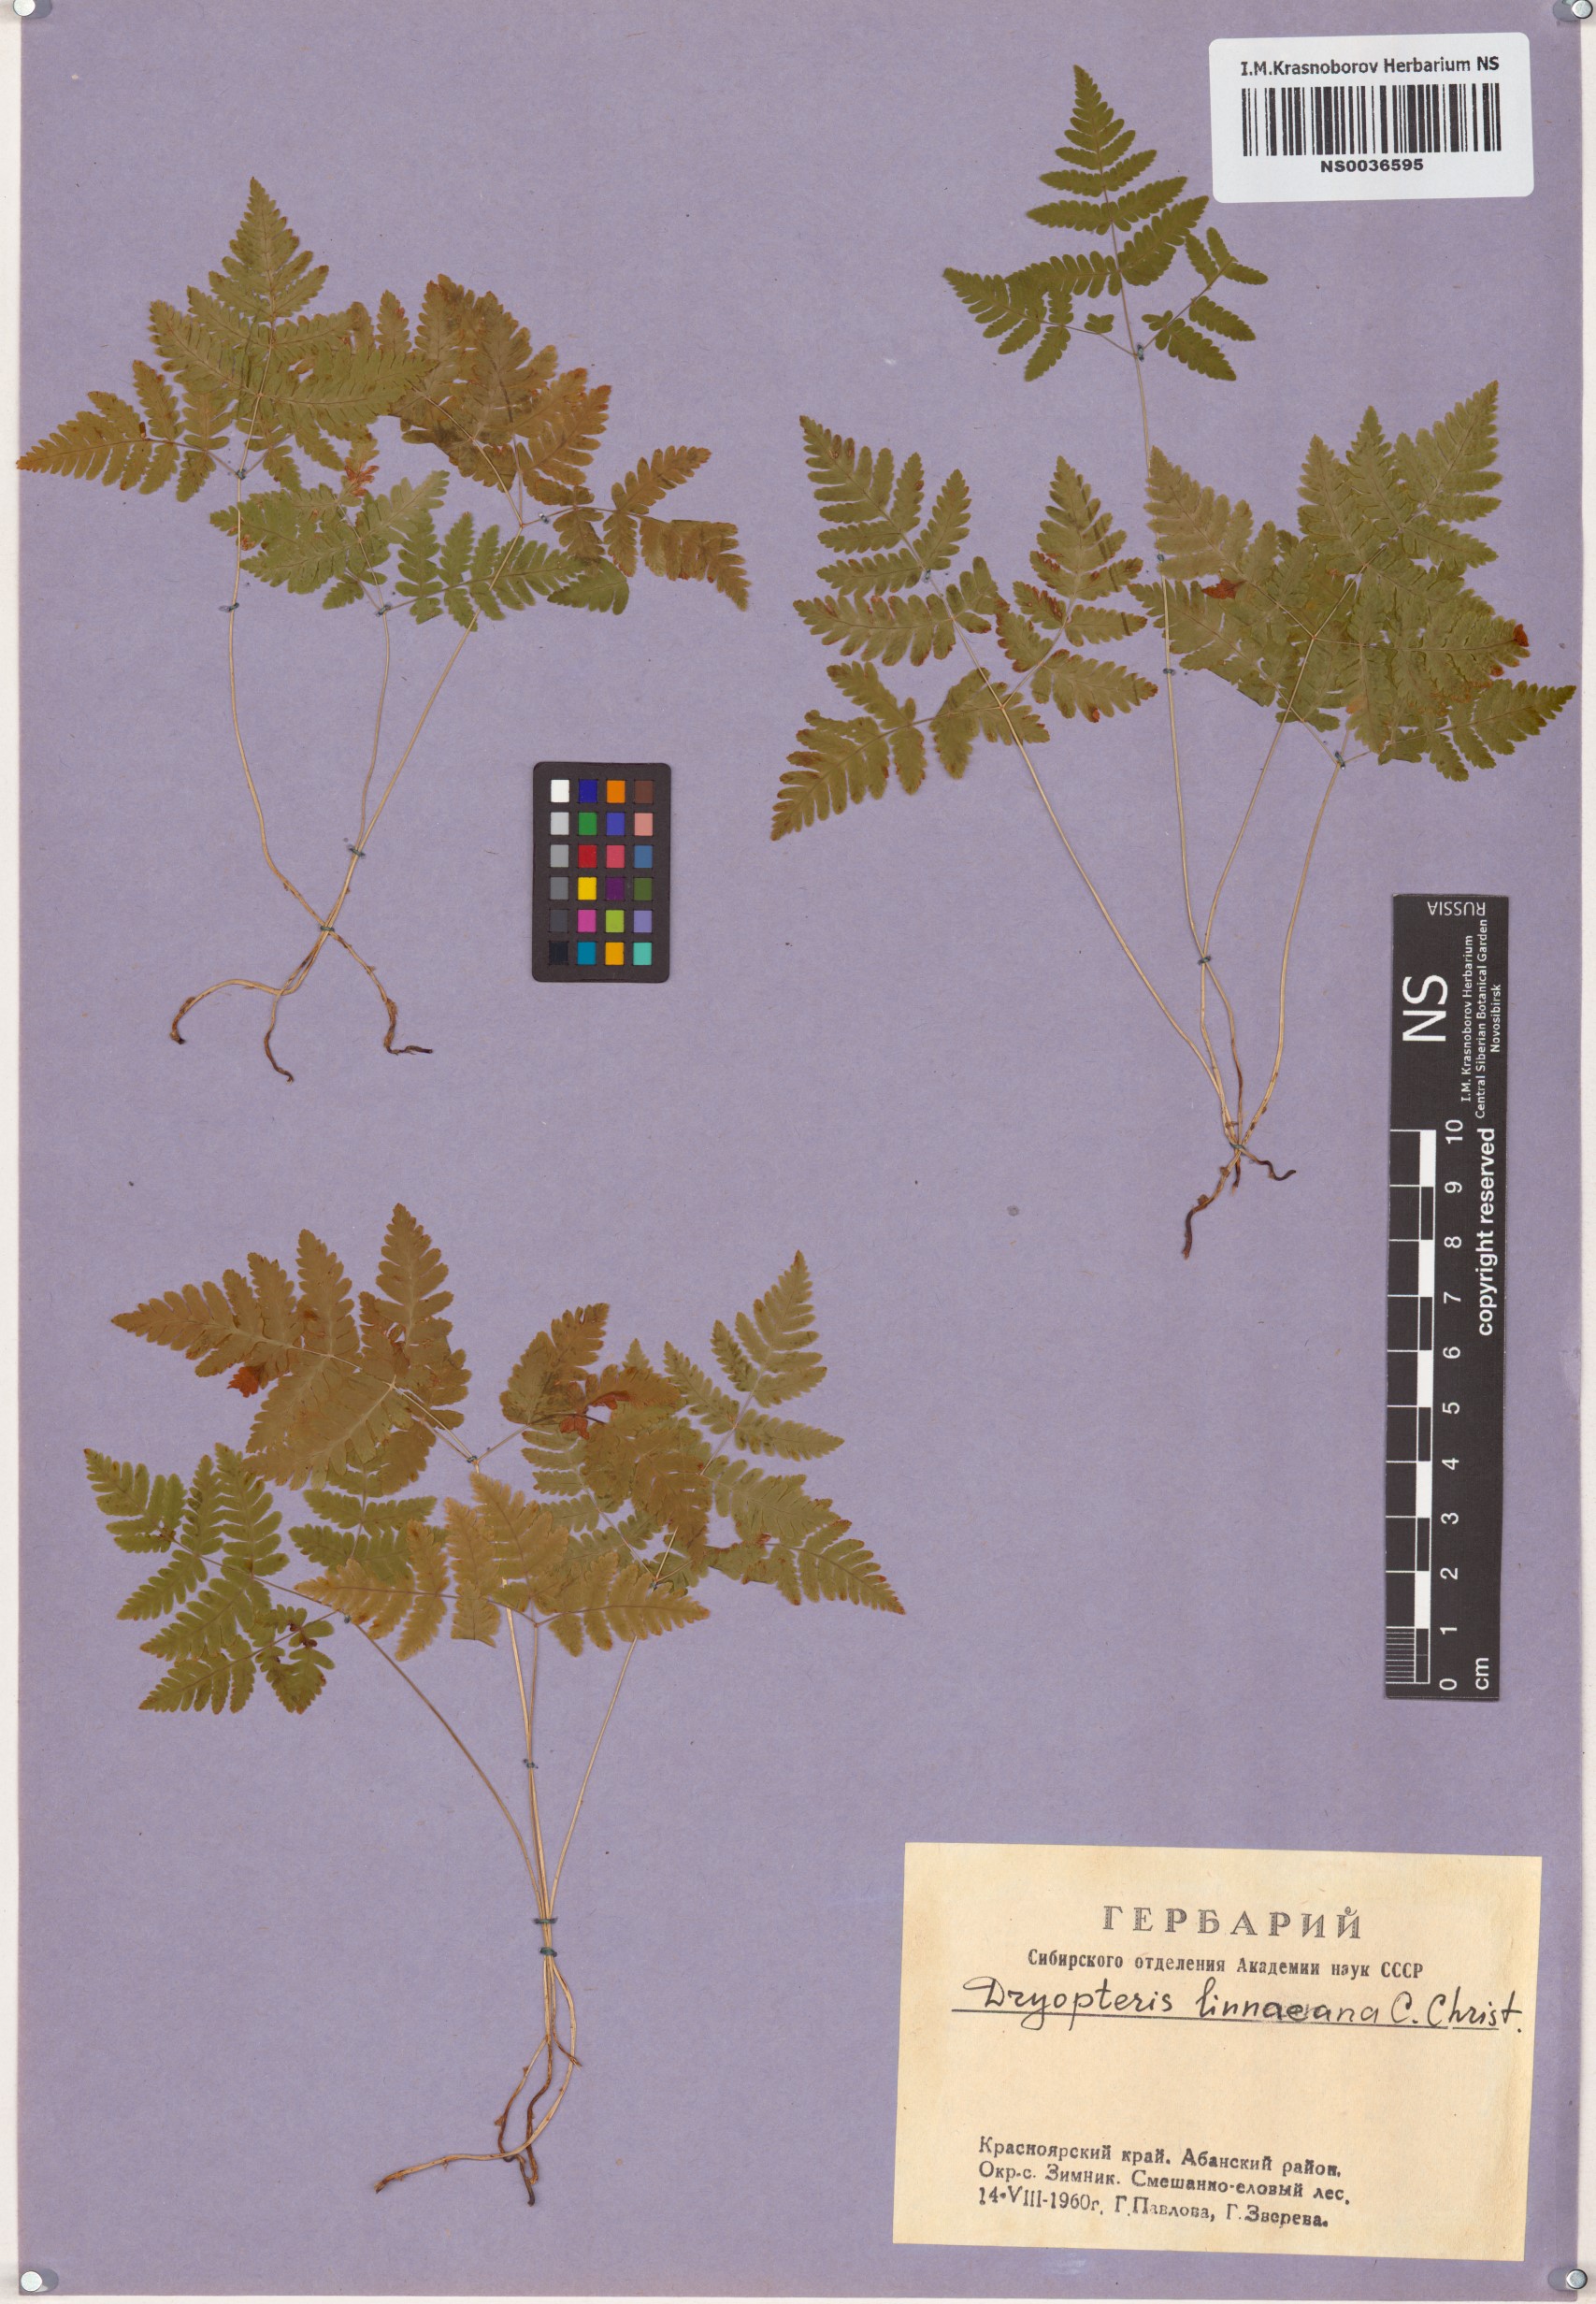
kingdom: Plantae
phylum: Tracheophyta
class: Polypodiopsida
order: Polypodiales
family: Cystopteridaceae
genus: Gymnocarpium
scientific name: Gymnocarpium dryopteris
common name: Oak fern
